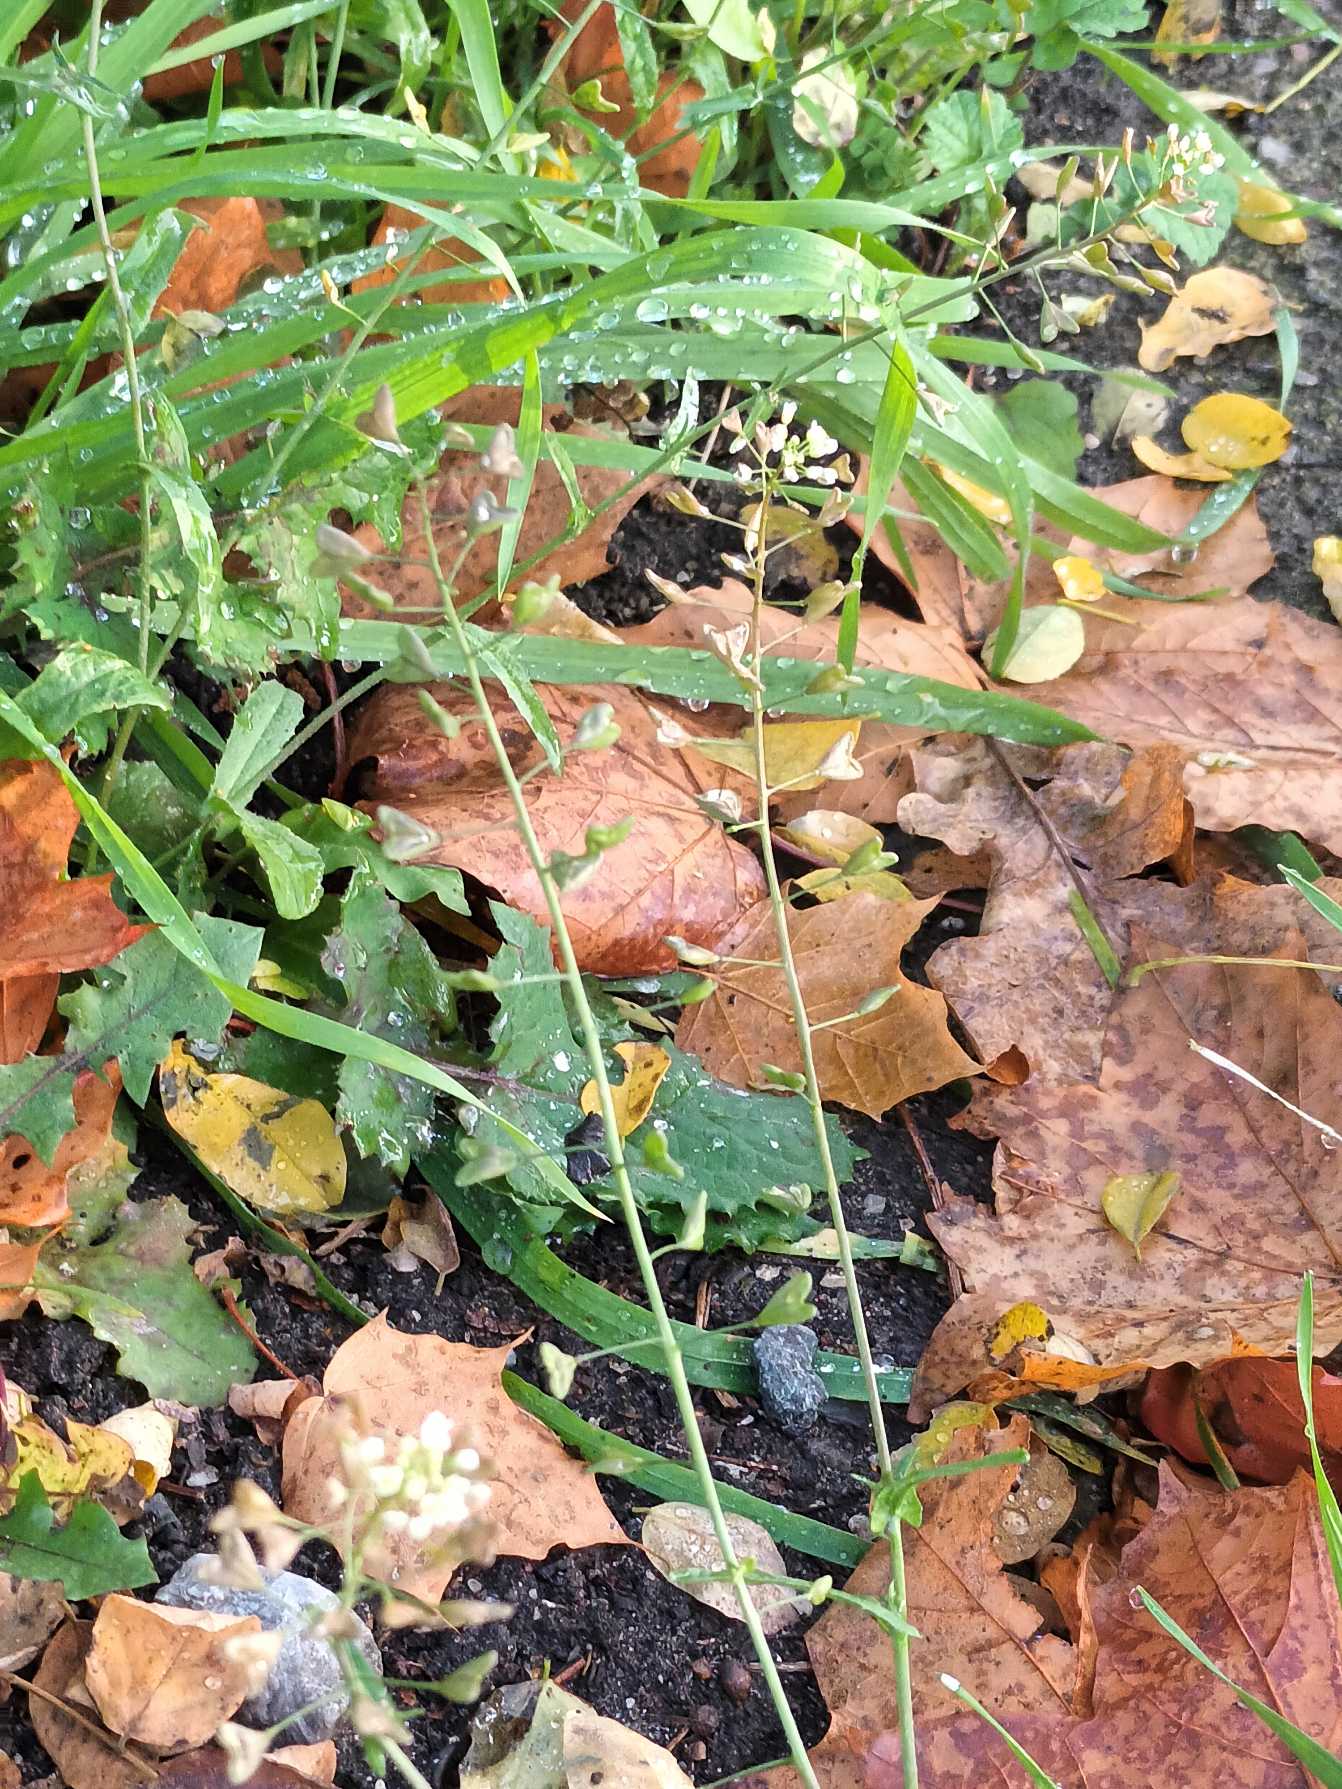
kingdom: Plantae
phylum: Tracheophyta
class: Magnoliopsida
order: Brassicales
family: Brassicaceae
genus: Capsella
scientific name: Capsella bursa-pastoris
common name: Hyrdetaske
